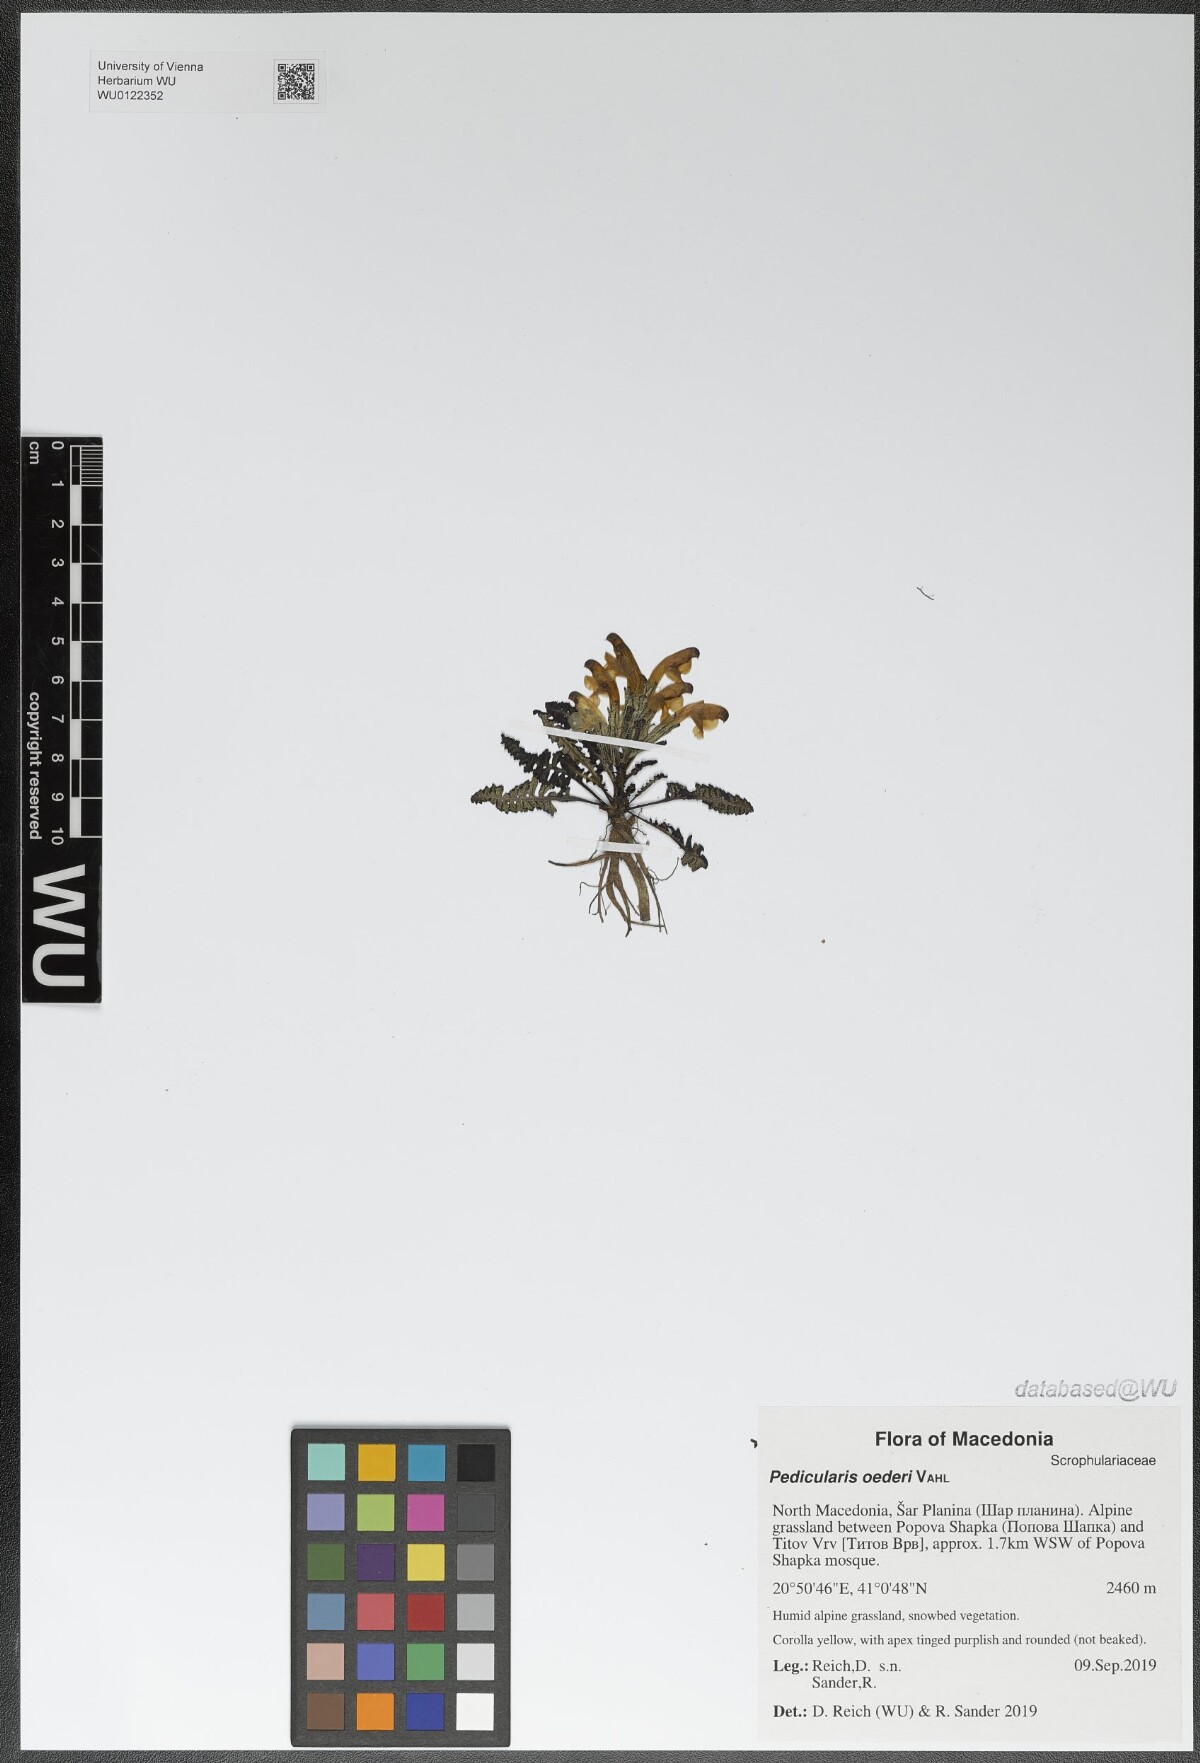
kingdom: Plantae
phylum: Tracheophyta
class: Magnoliopsida
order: Lamiales
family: Orobanchaceae
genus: Pedicularis
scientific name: Pedicularis oederi
